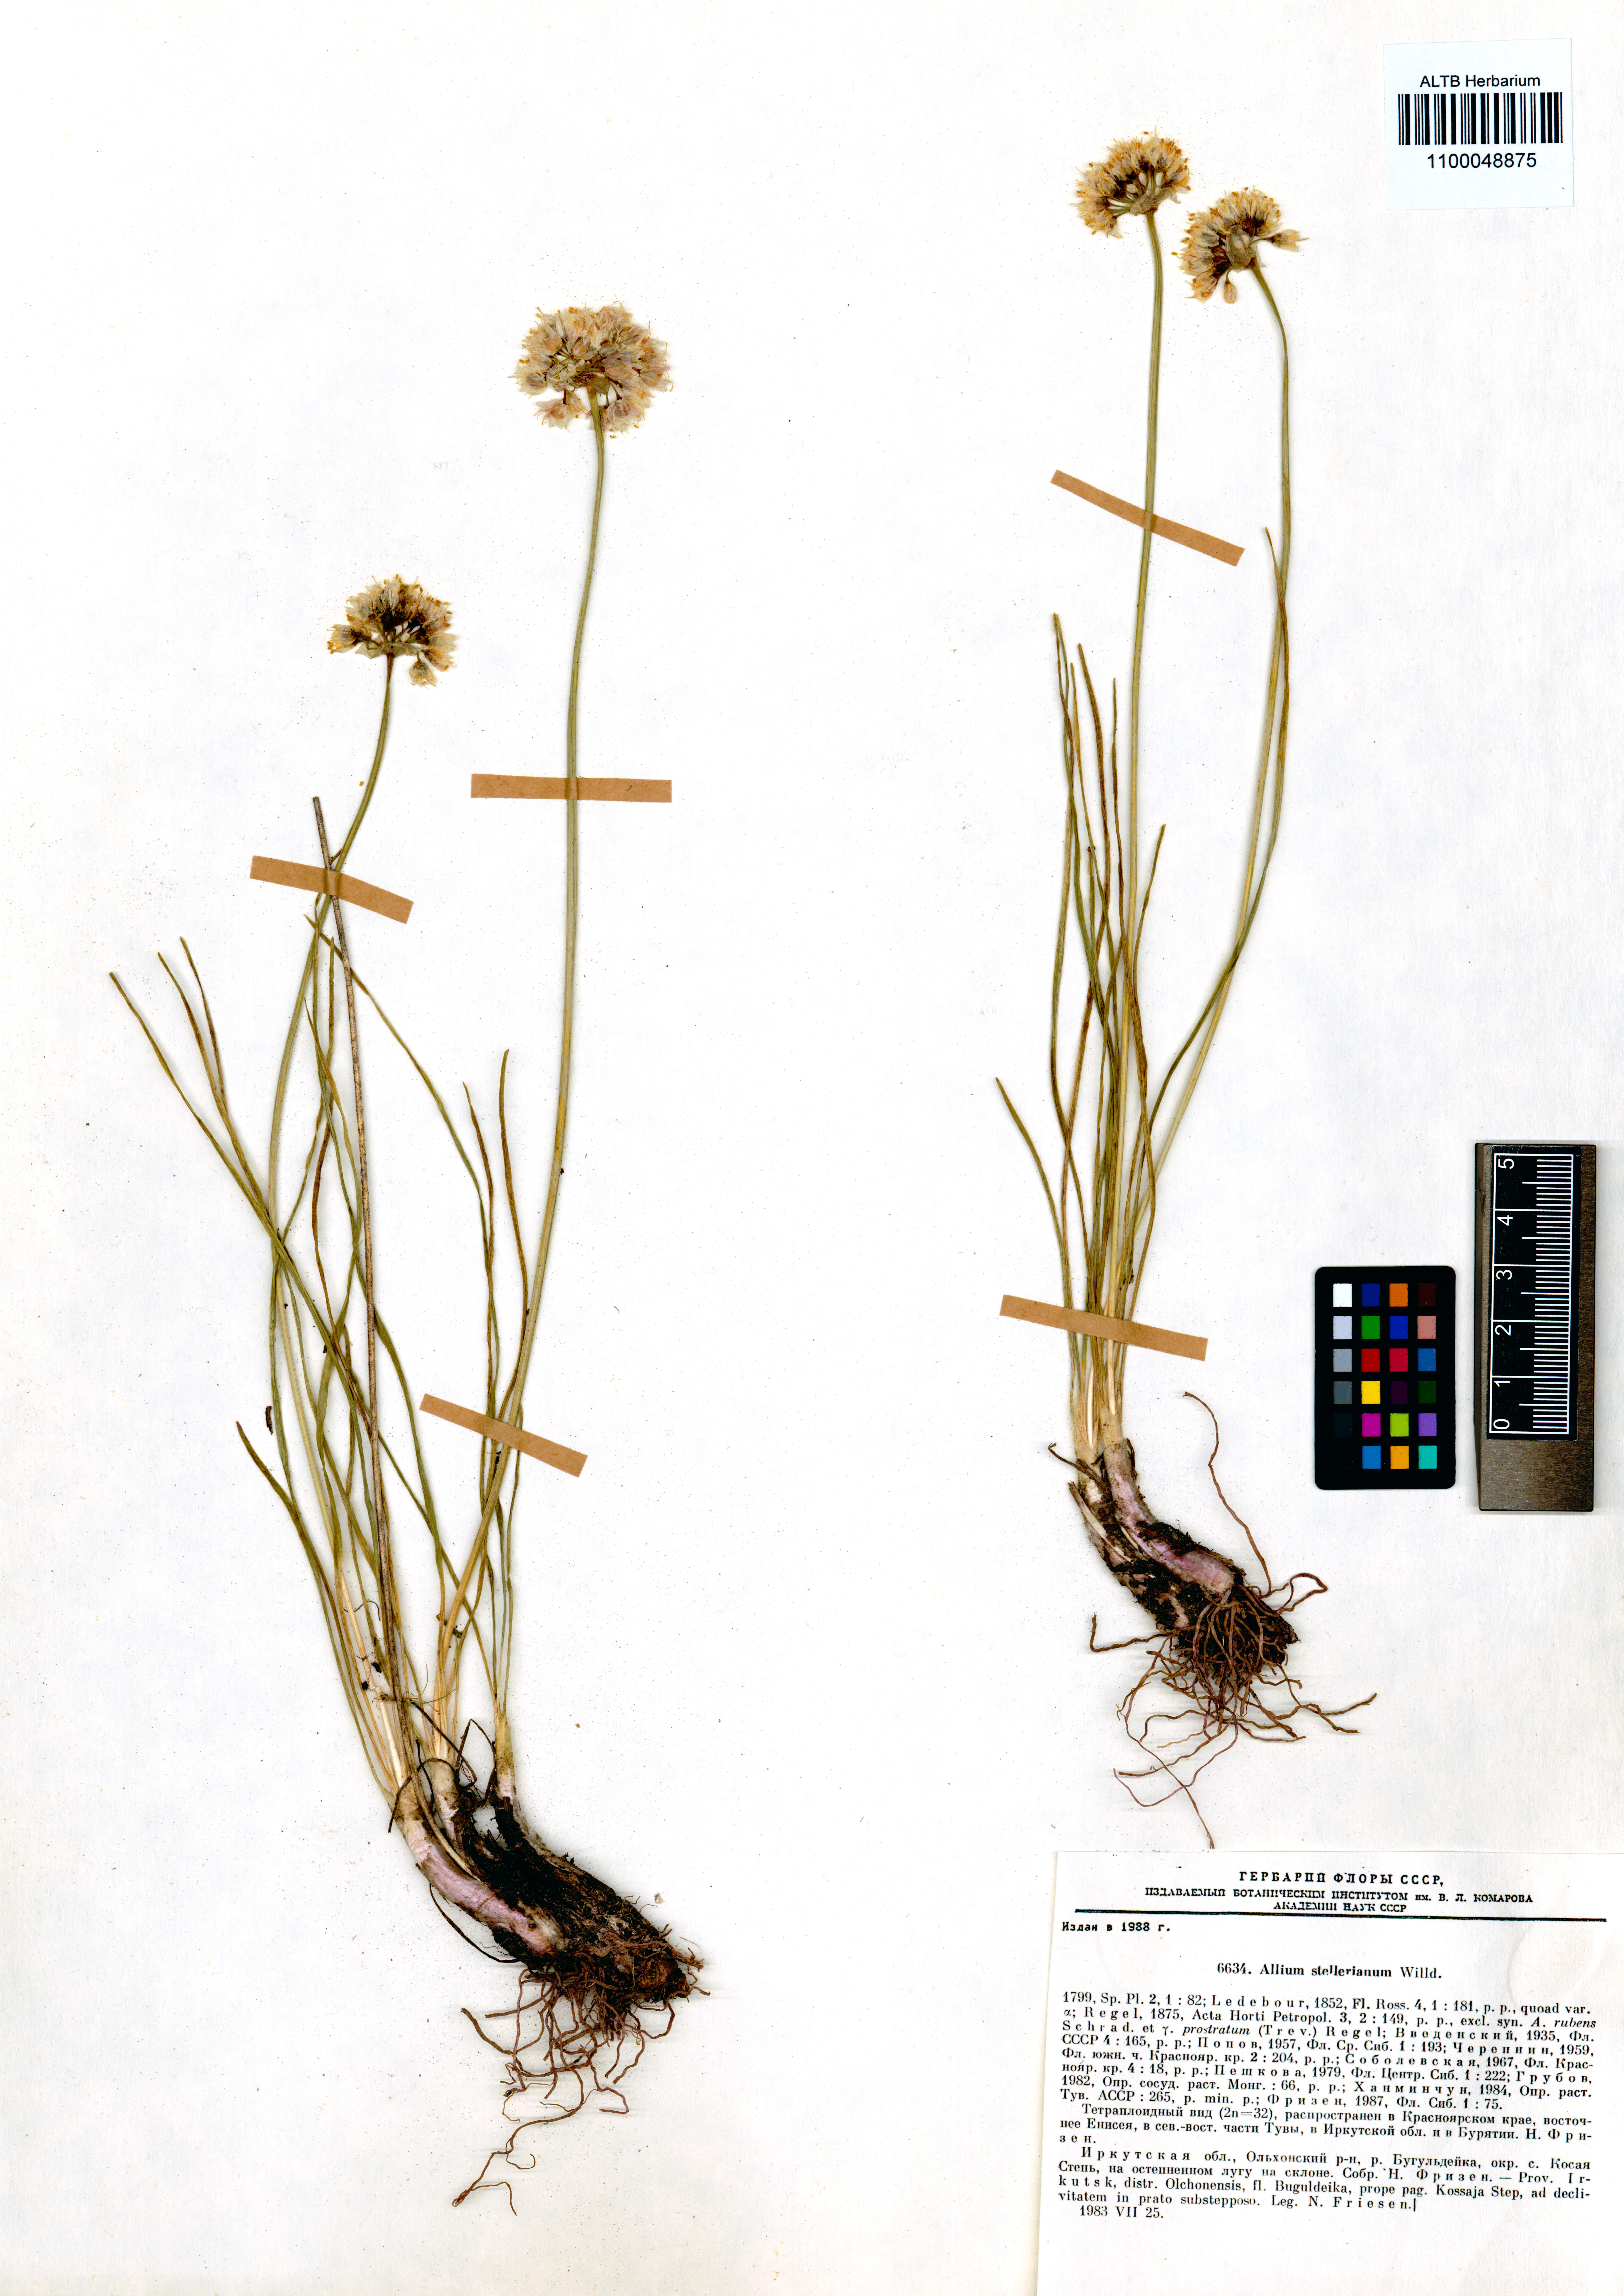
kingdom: Plantae
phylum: Tracheophyta
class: Liliopsida
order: Asparagales
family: Amaryllidaceae
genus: Allium
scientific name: Allium stellerianum
